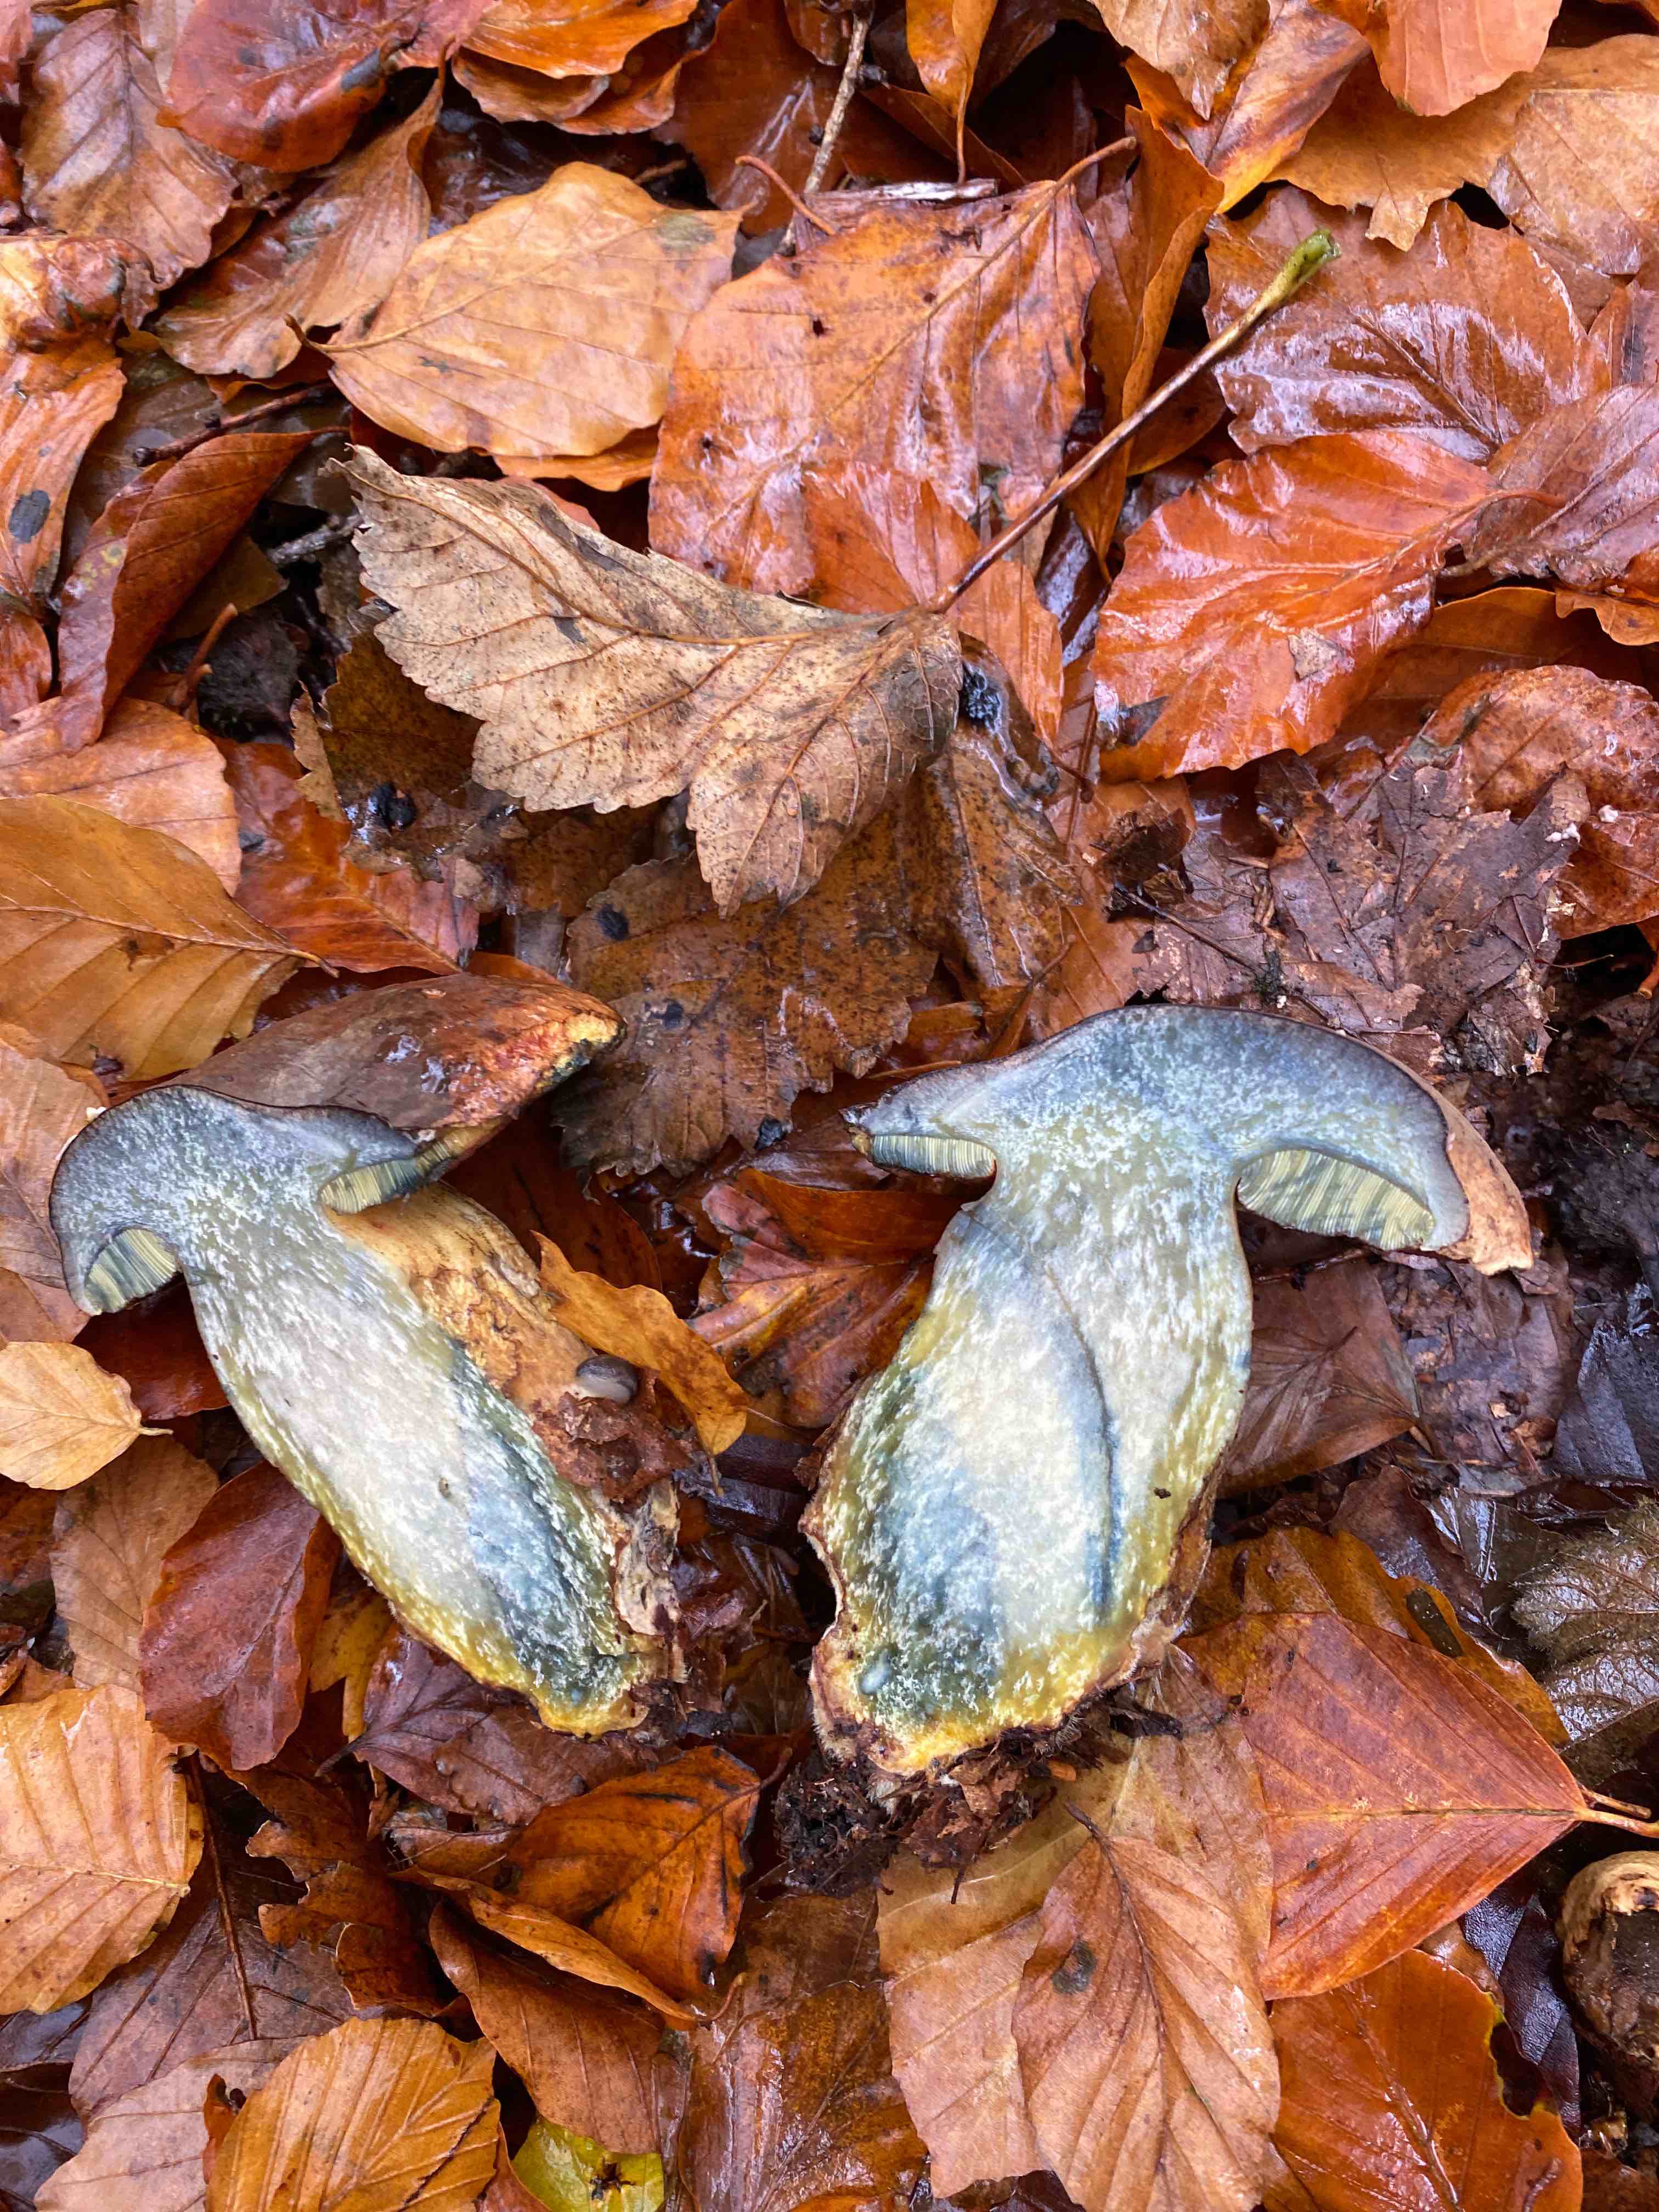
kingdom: Fungi
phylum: Basidiomycota
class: Agaricomycetes
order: Boletales
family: Boletaceae
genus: Neoboletus
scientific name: Neoboletus xanthopus
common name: finprikket indigorørhat
